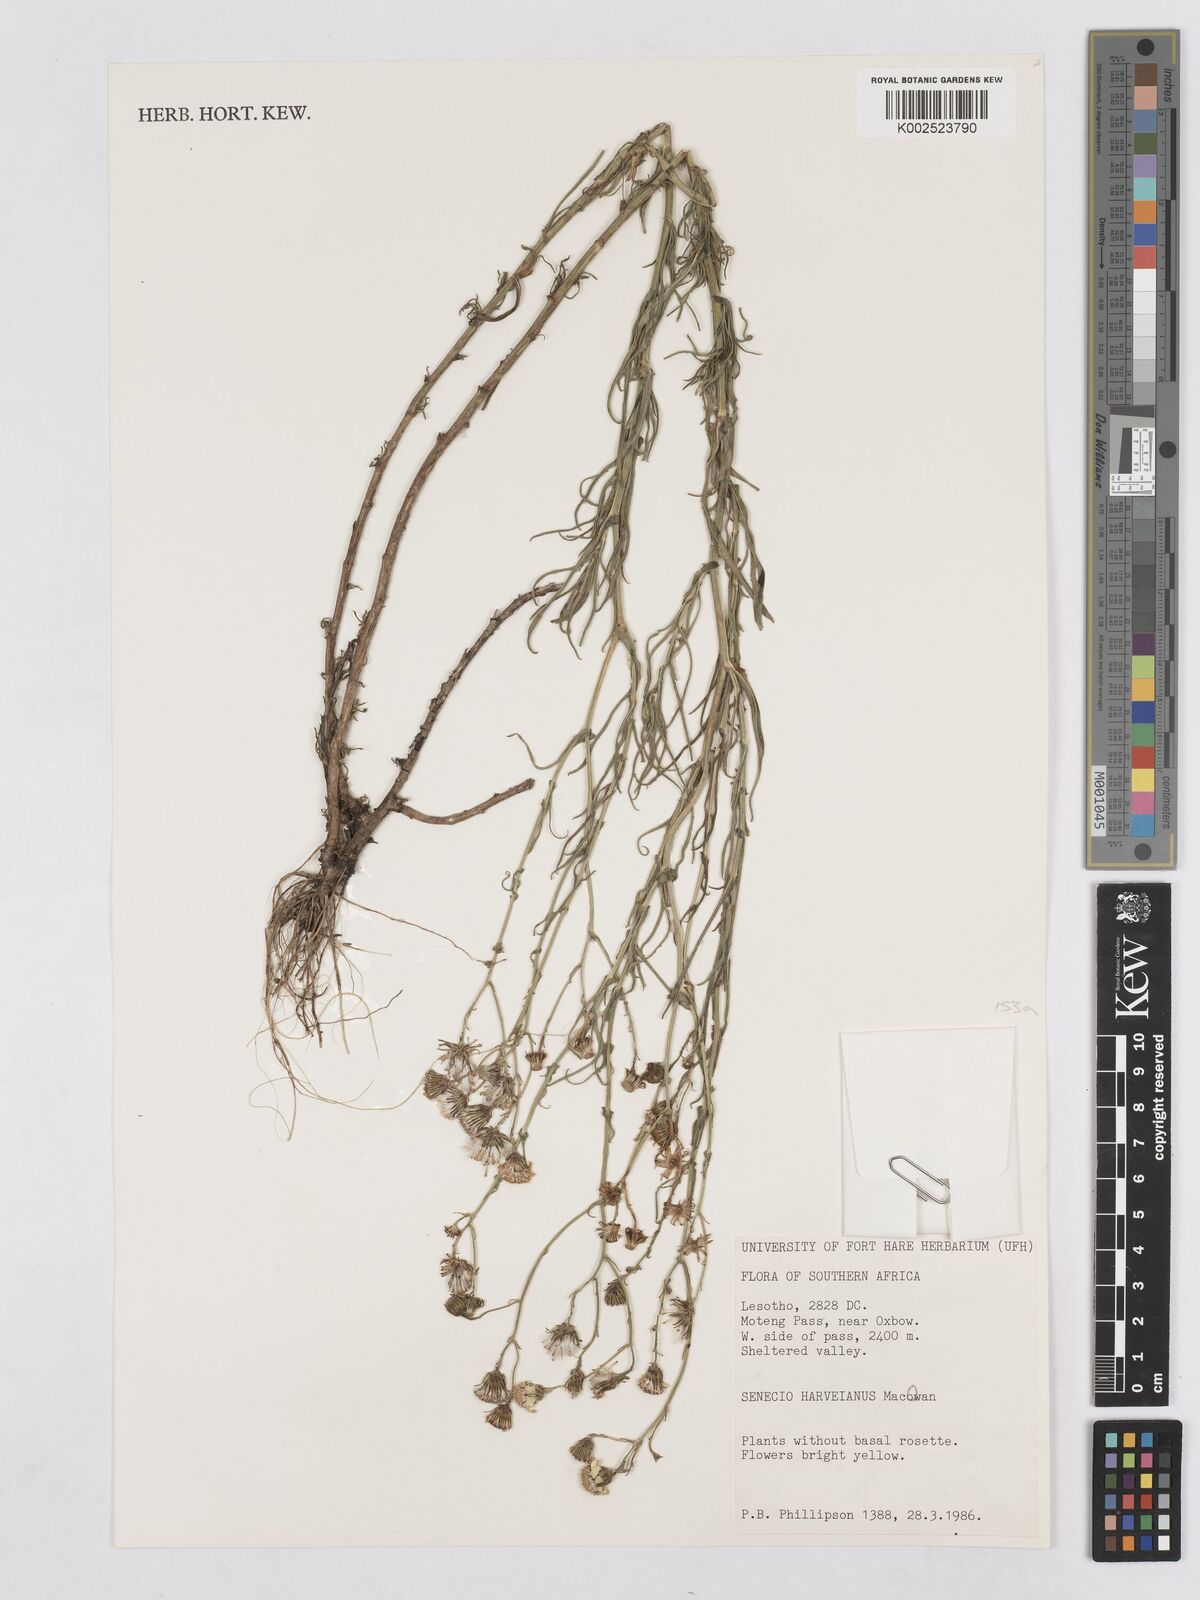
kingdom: Plantae
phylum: Tracheophyta
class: Magnoliopsida
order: Asterales
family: Asteraceae
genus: Senecio
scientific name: Senecio harveyanus
